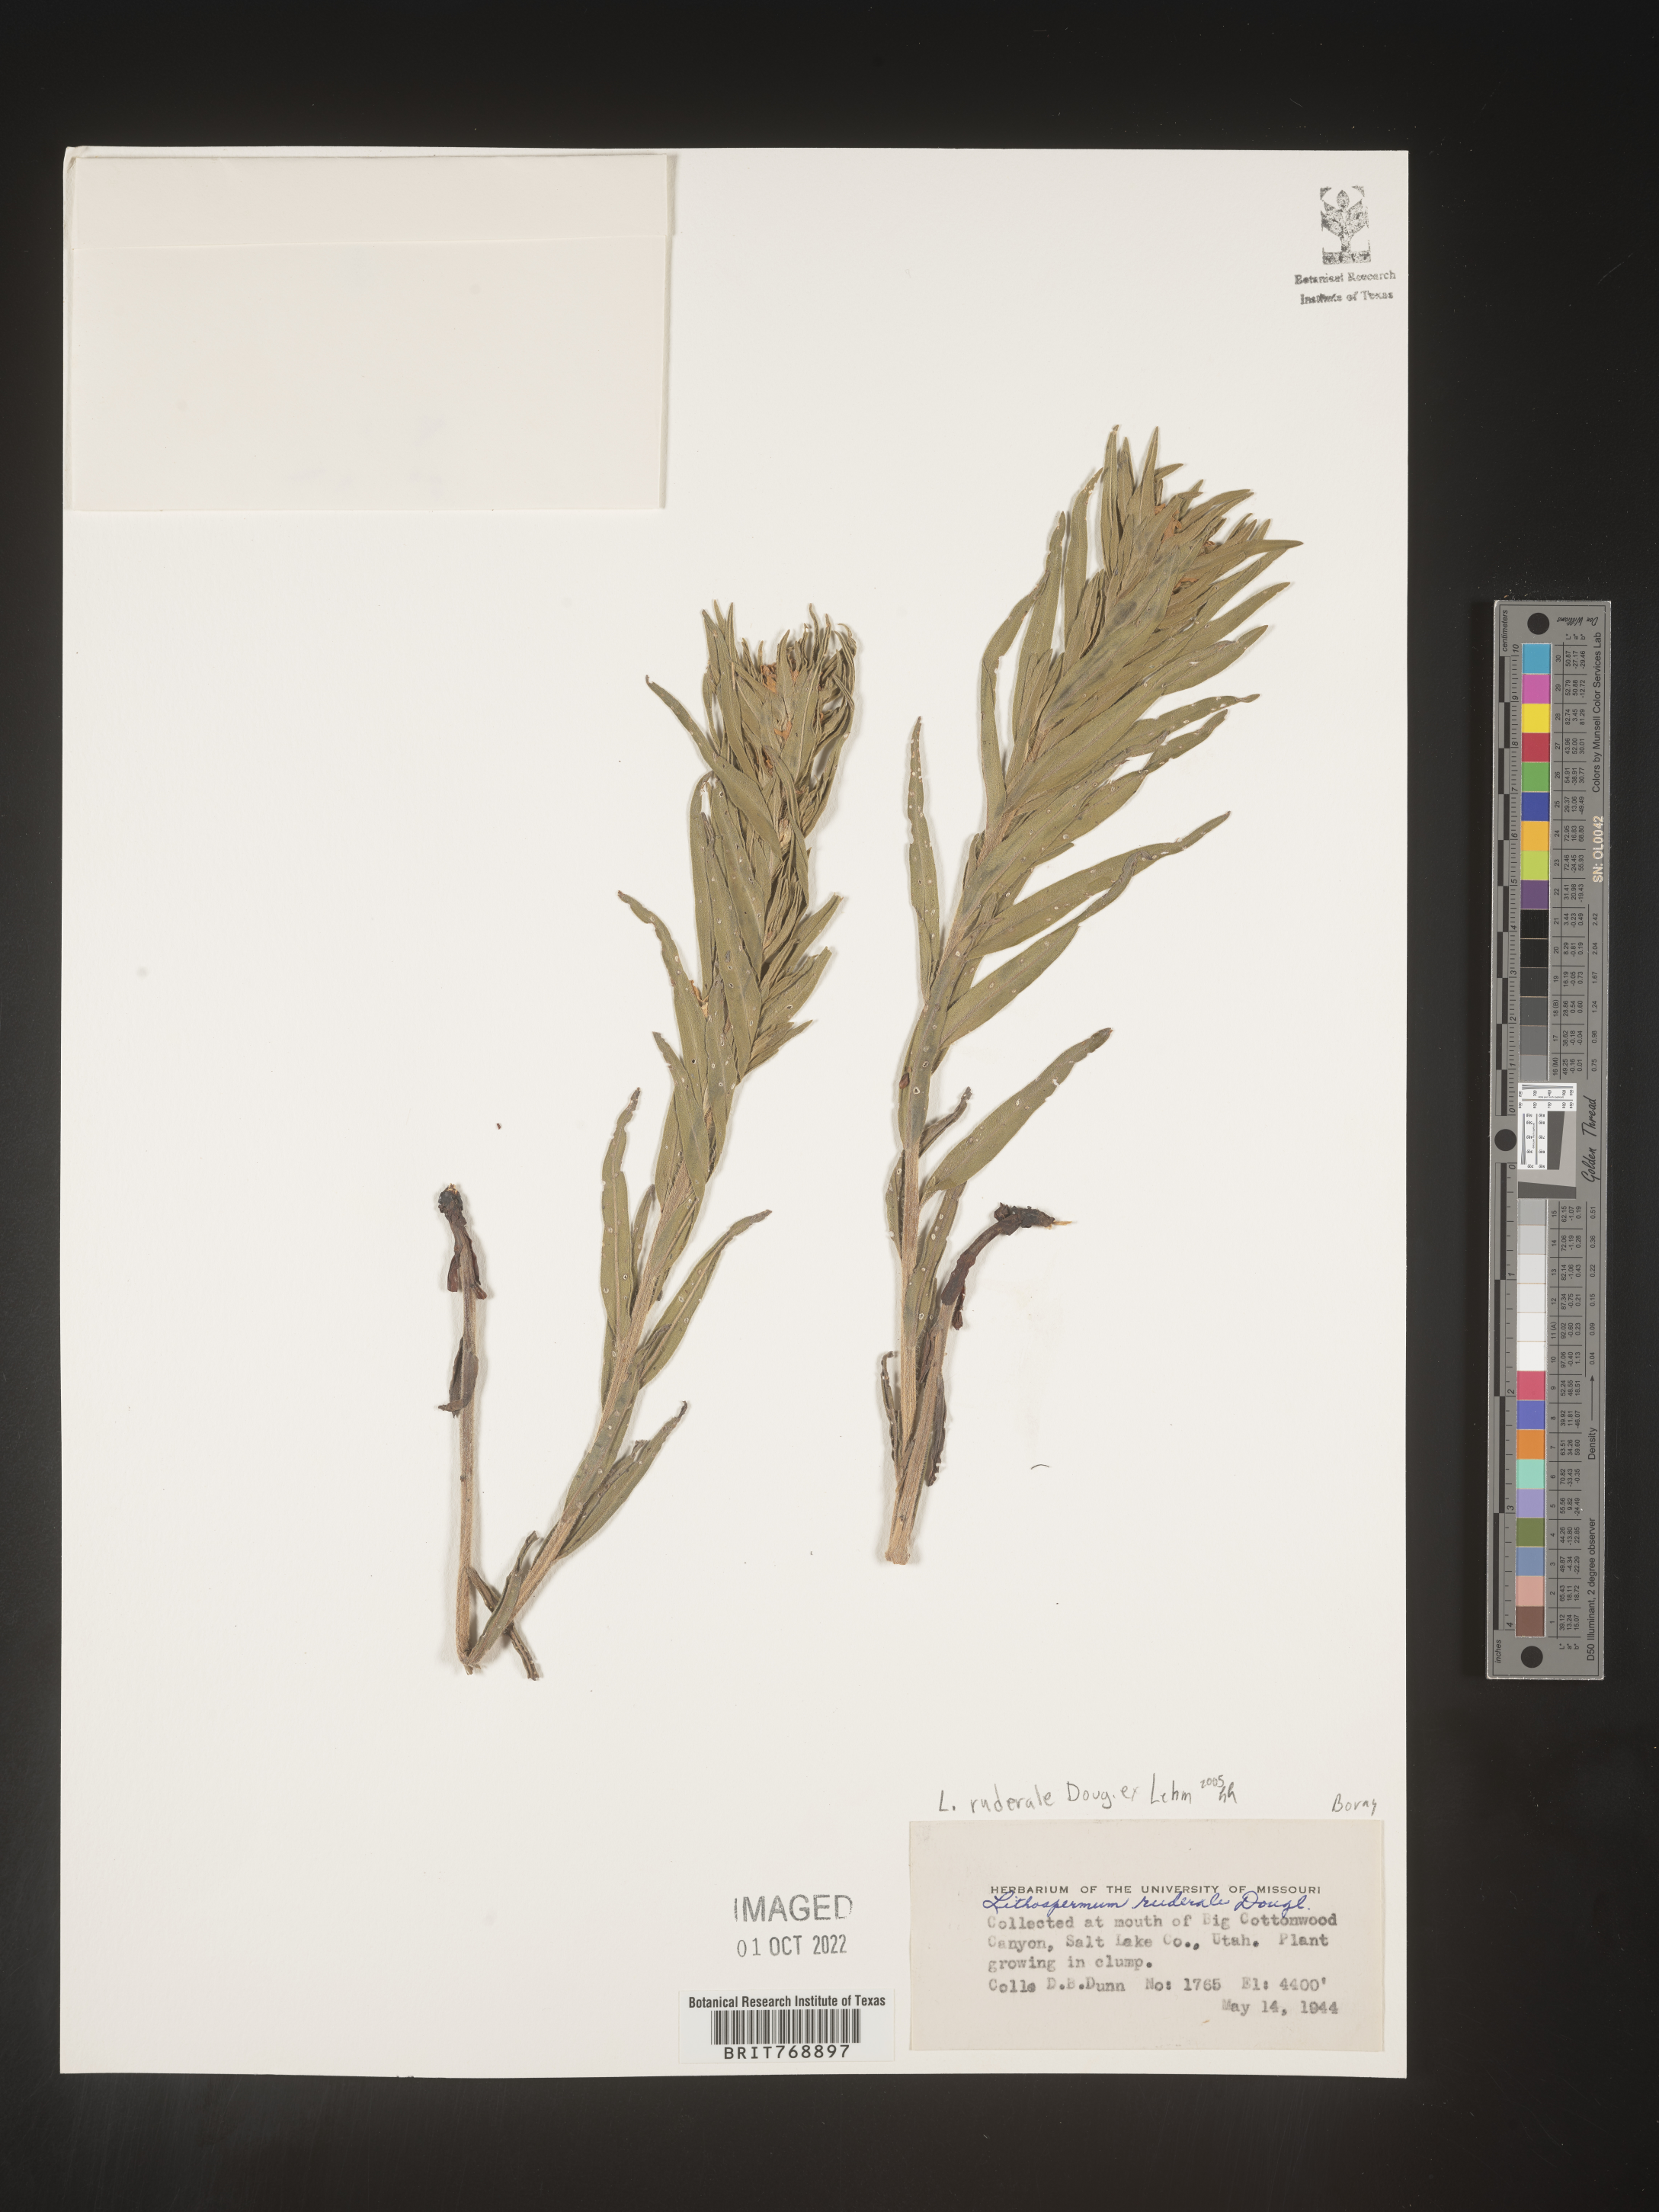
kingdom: Plantae
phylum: Tracheophyta
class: Magnoliopsida
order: Boraginales
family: Boraginaceae
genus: Lithospermum
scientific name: Lithospermum
